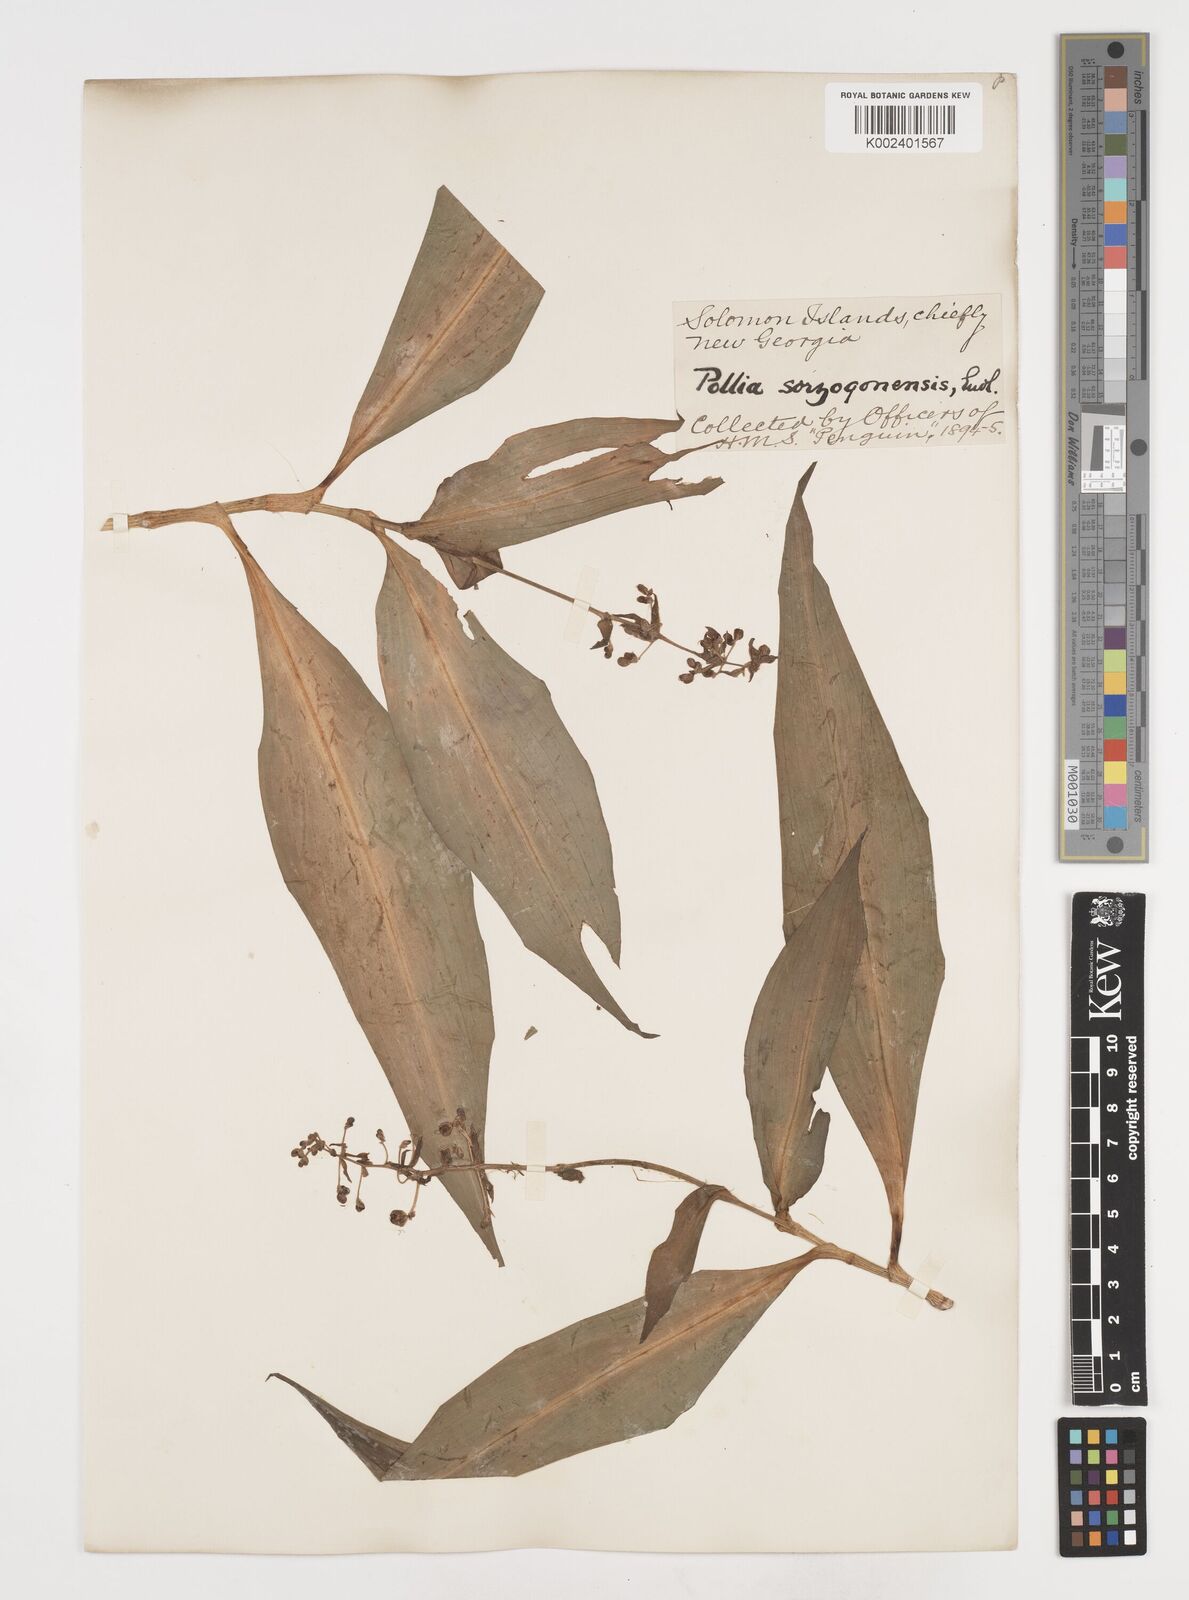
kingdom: Plantae
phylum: Tracheophyta
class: Liliopsida
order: Commelinales
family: Commelinaceae
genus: Pollia
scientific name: Pollia secundiflora
